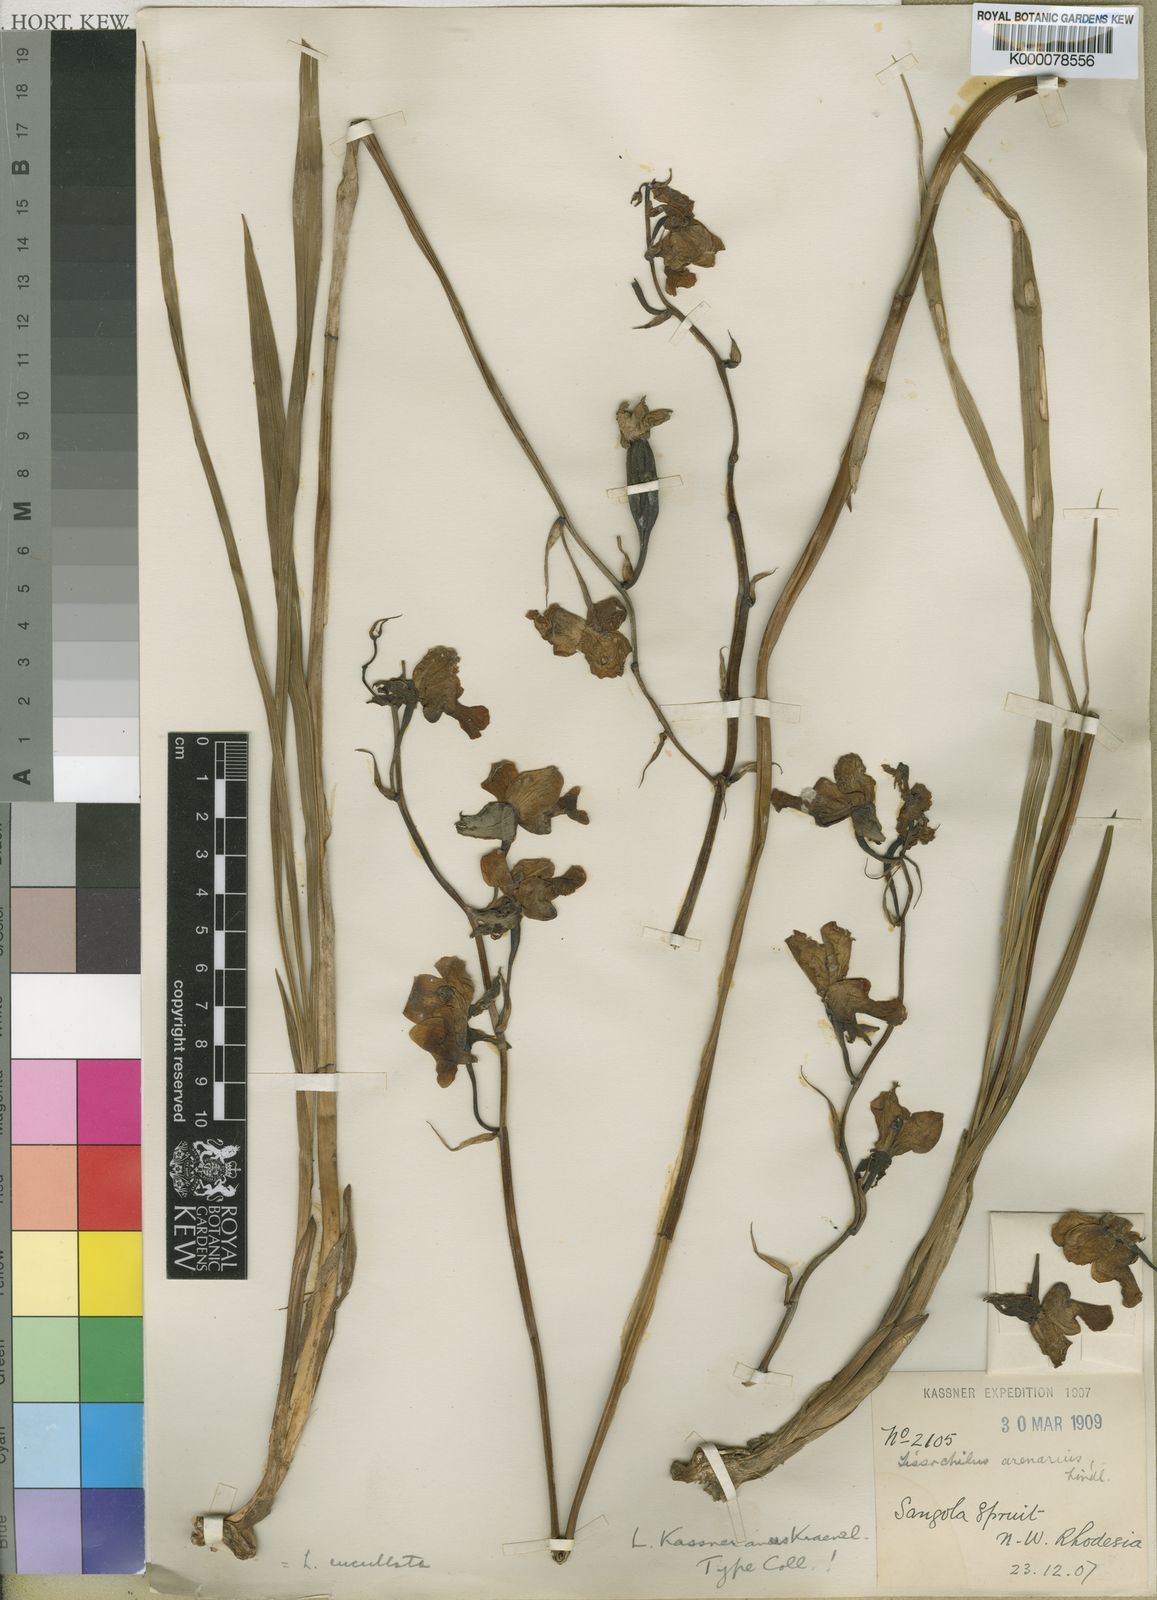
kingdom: Plantae
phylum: Tracheophyta
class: Liliopsida
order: Asparagales
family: Orchidaceae
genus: Eulophia
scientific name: Eulophia cucullata
